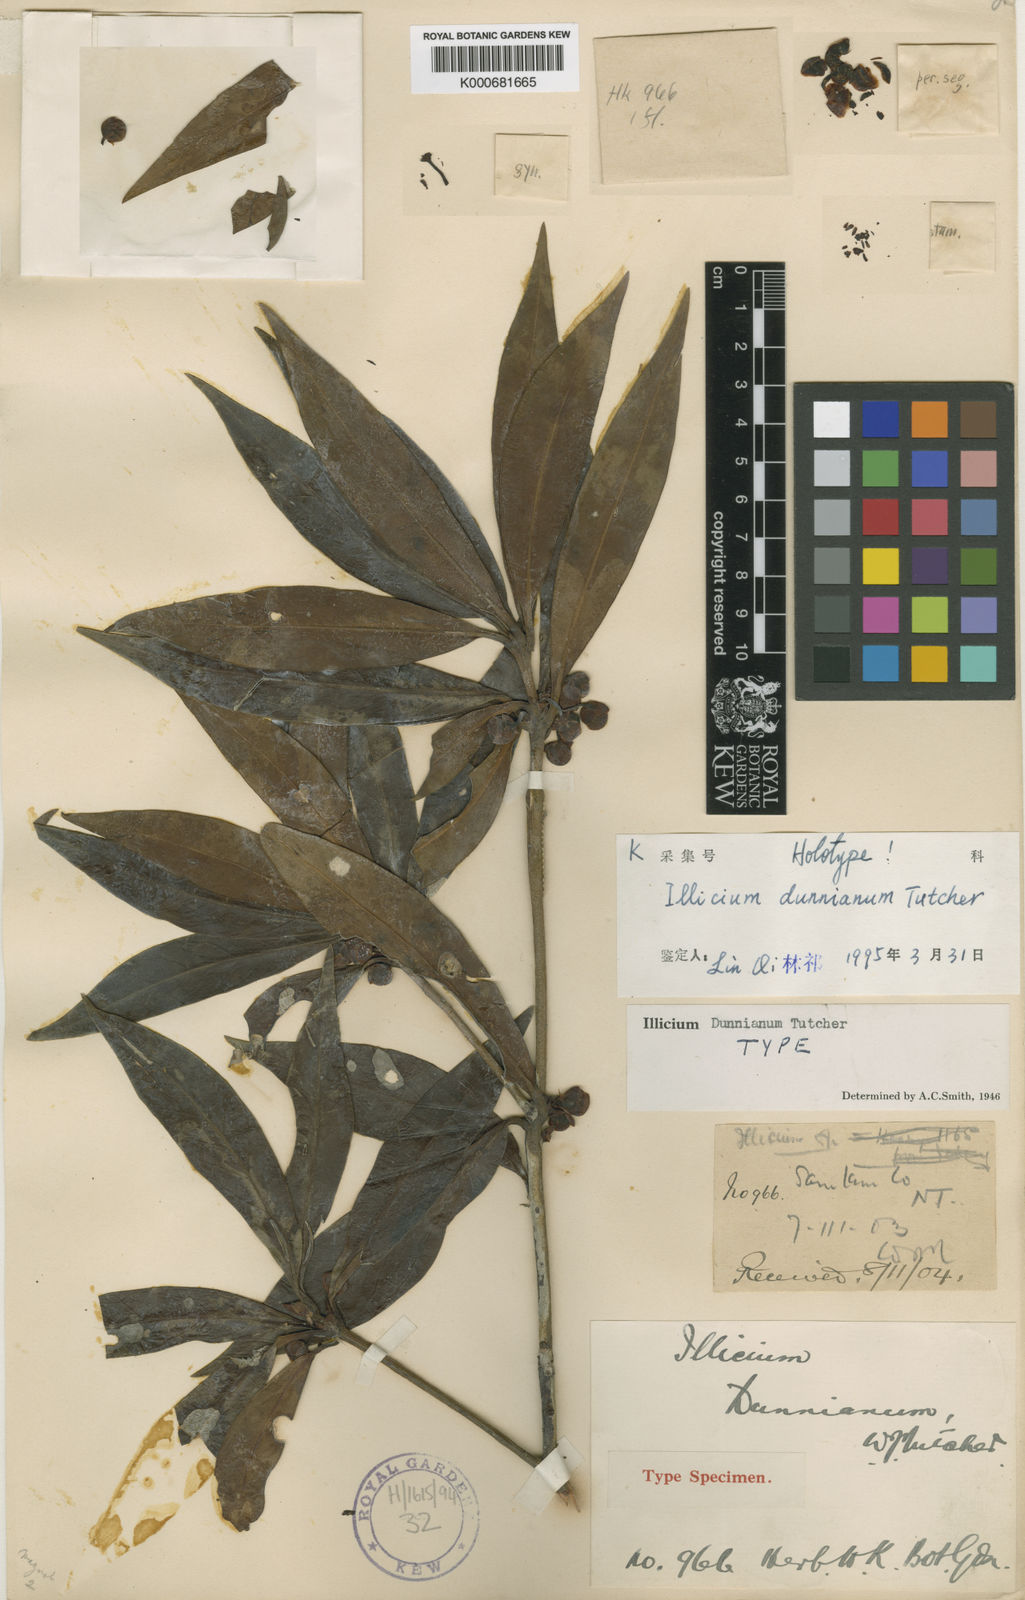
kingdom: Plantae
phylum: Tracheophyta
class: Magnoliopsida
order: Austrobaileyales
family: Schisandraceae
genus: Illicium
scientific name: Illicium dunnianum
